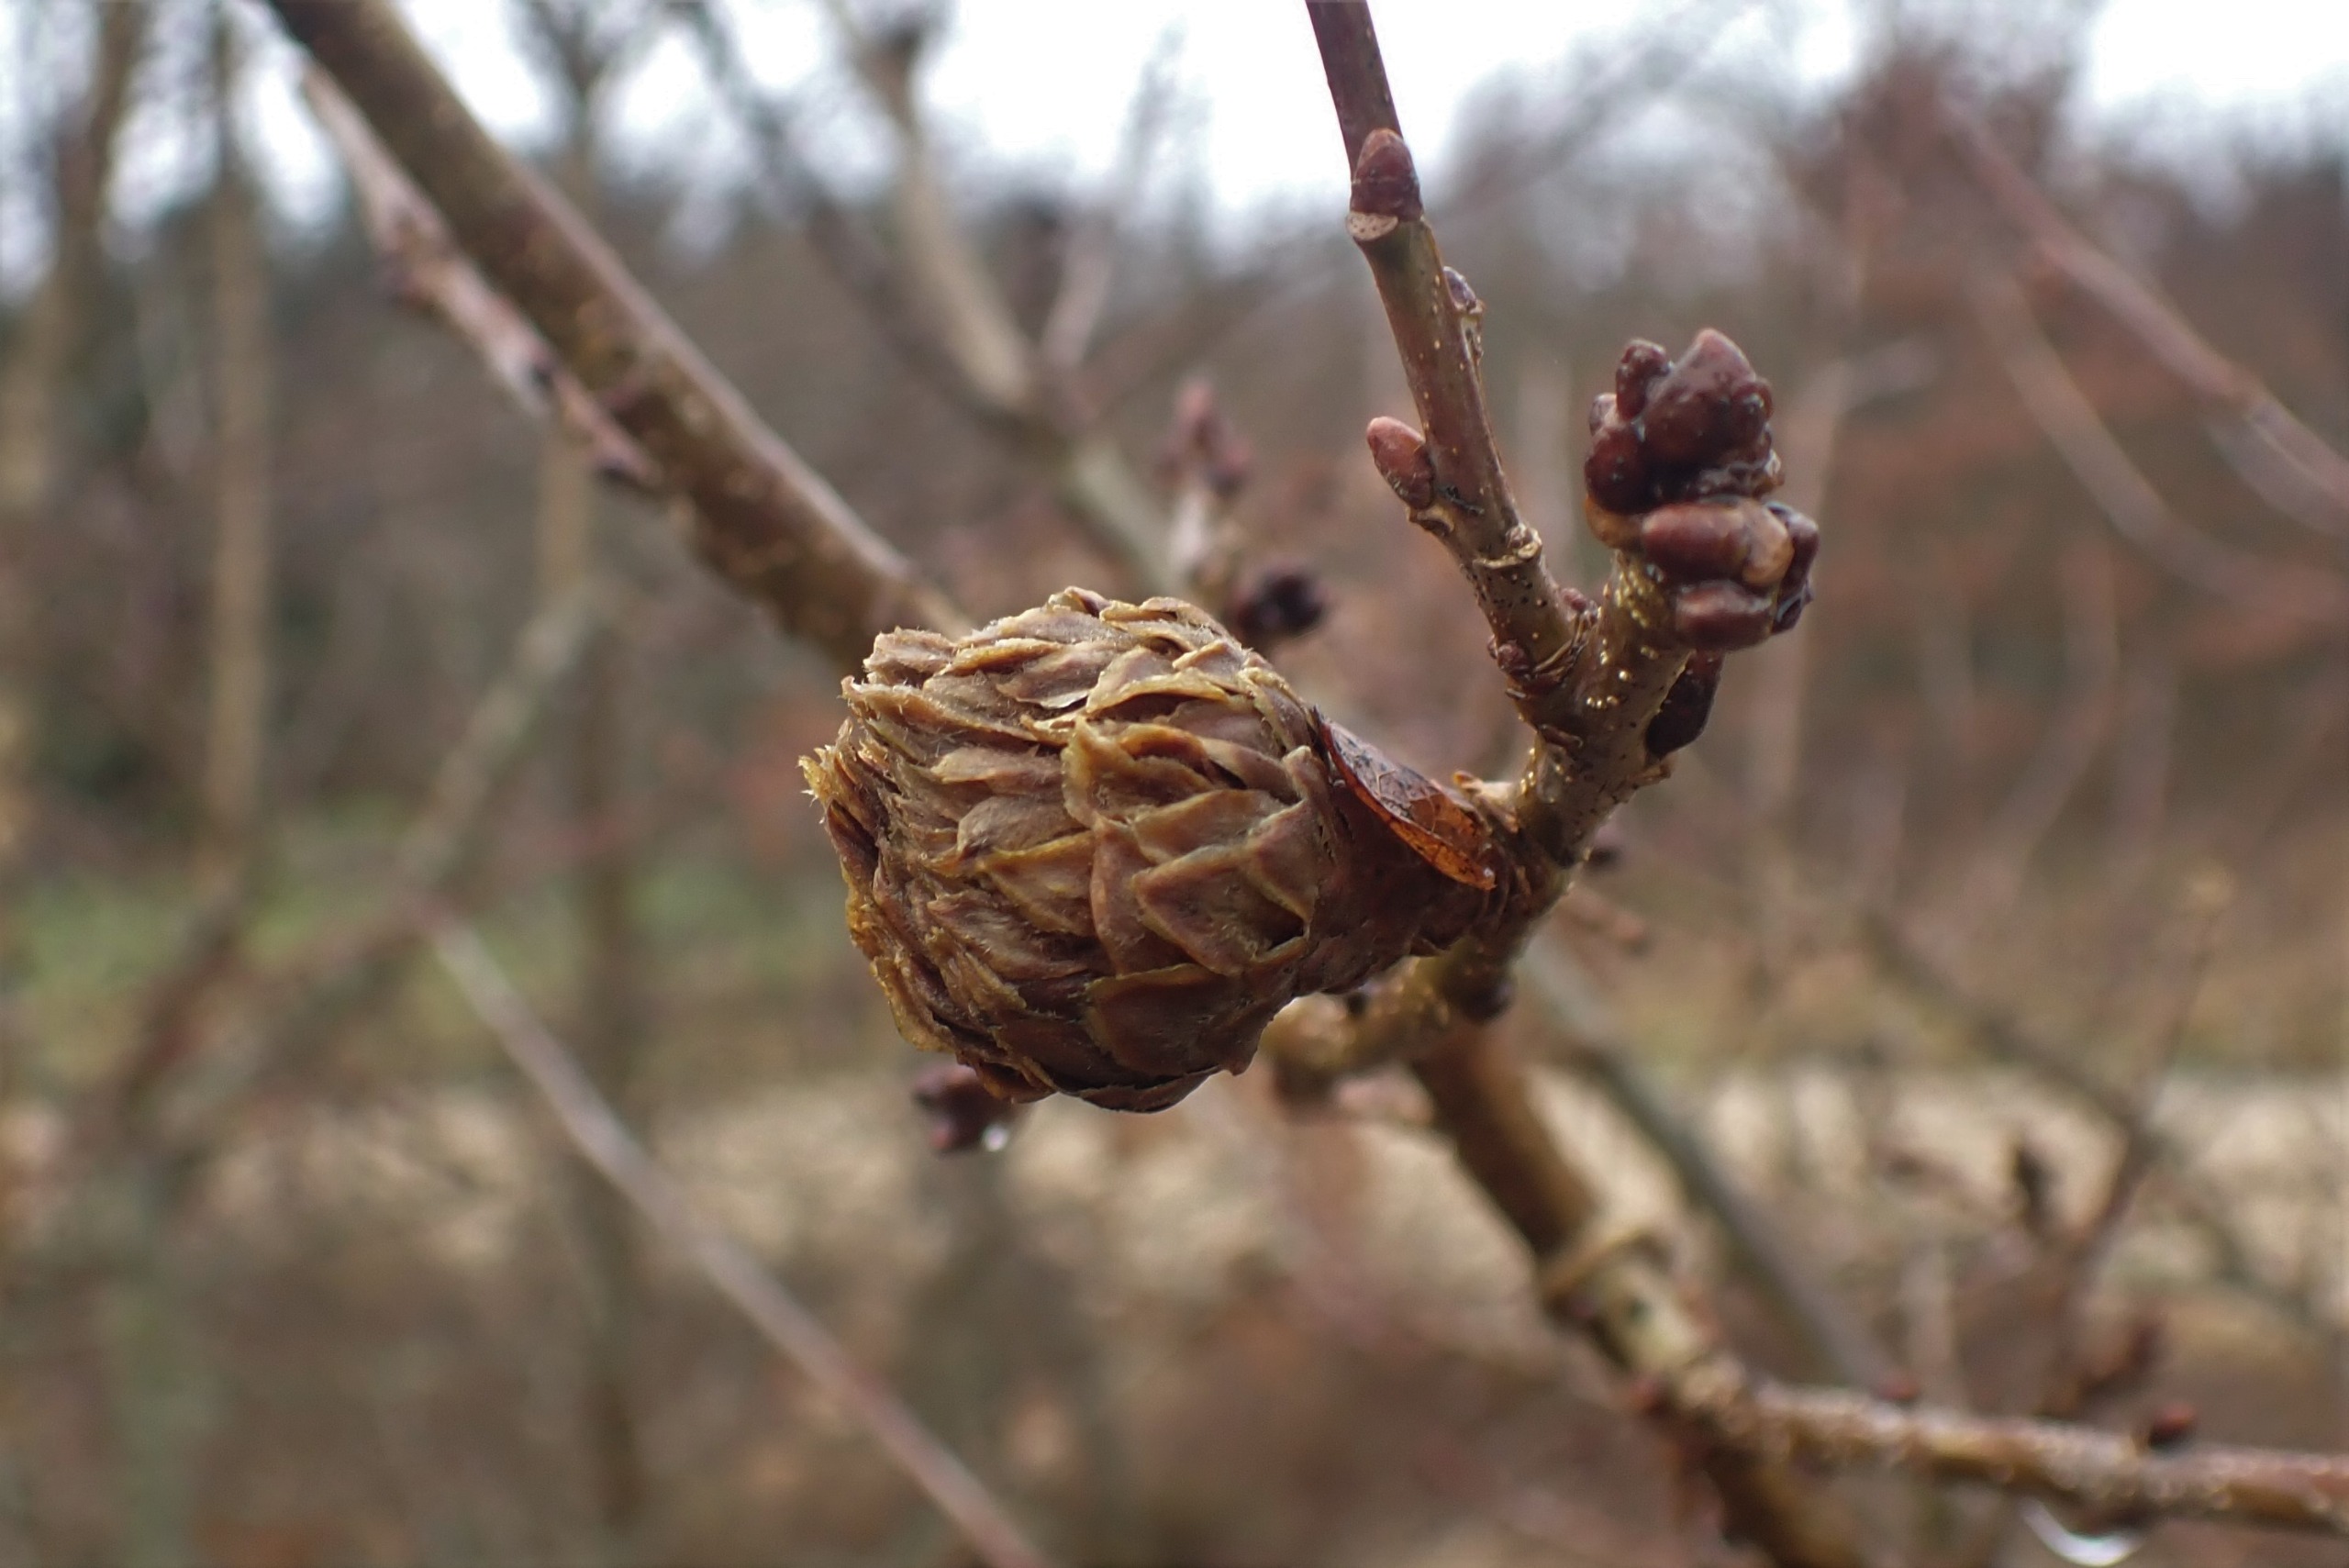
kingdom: Animalia
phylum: Arthropoda
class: Insecta
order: Hymenoptera
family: Cynipidae
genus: Andricus
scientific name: Andricus foecundatrix
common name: Artiskokgalhveps
